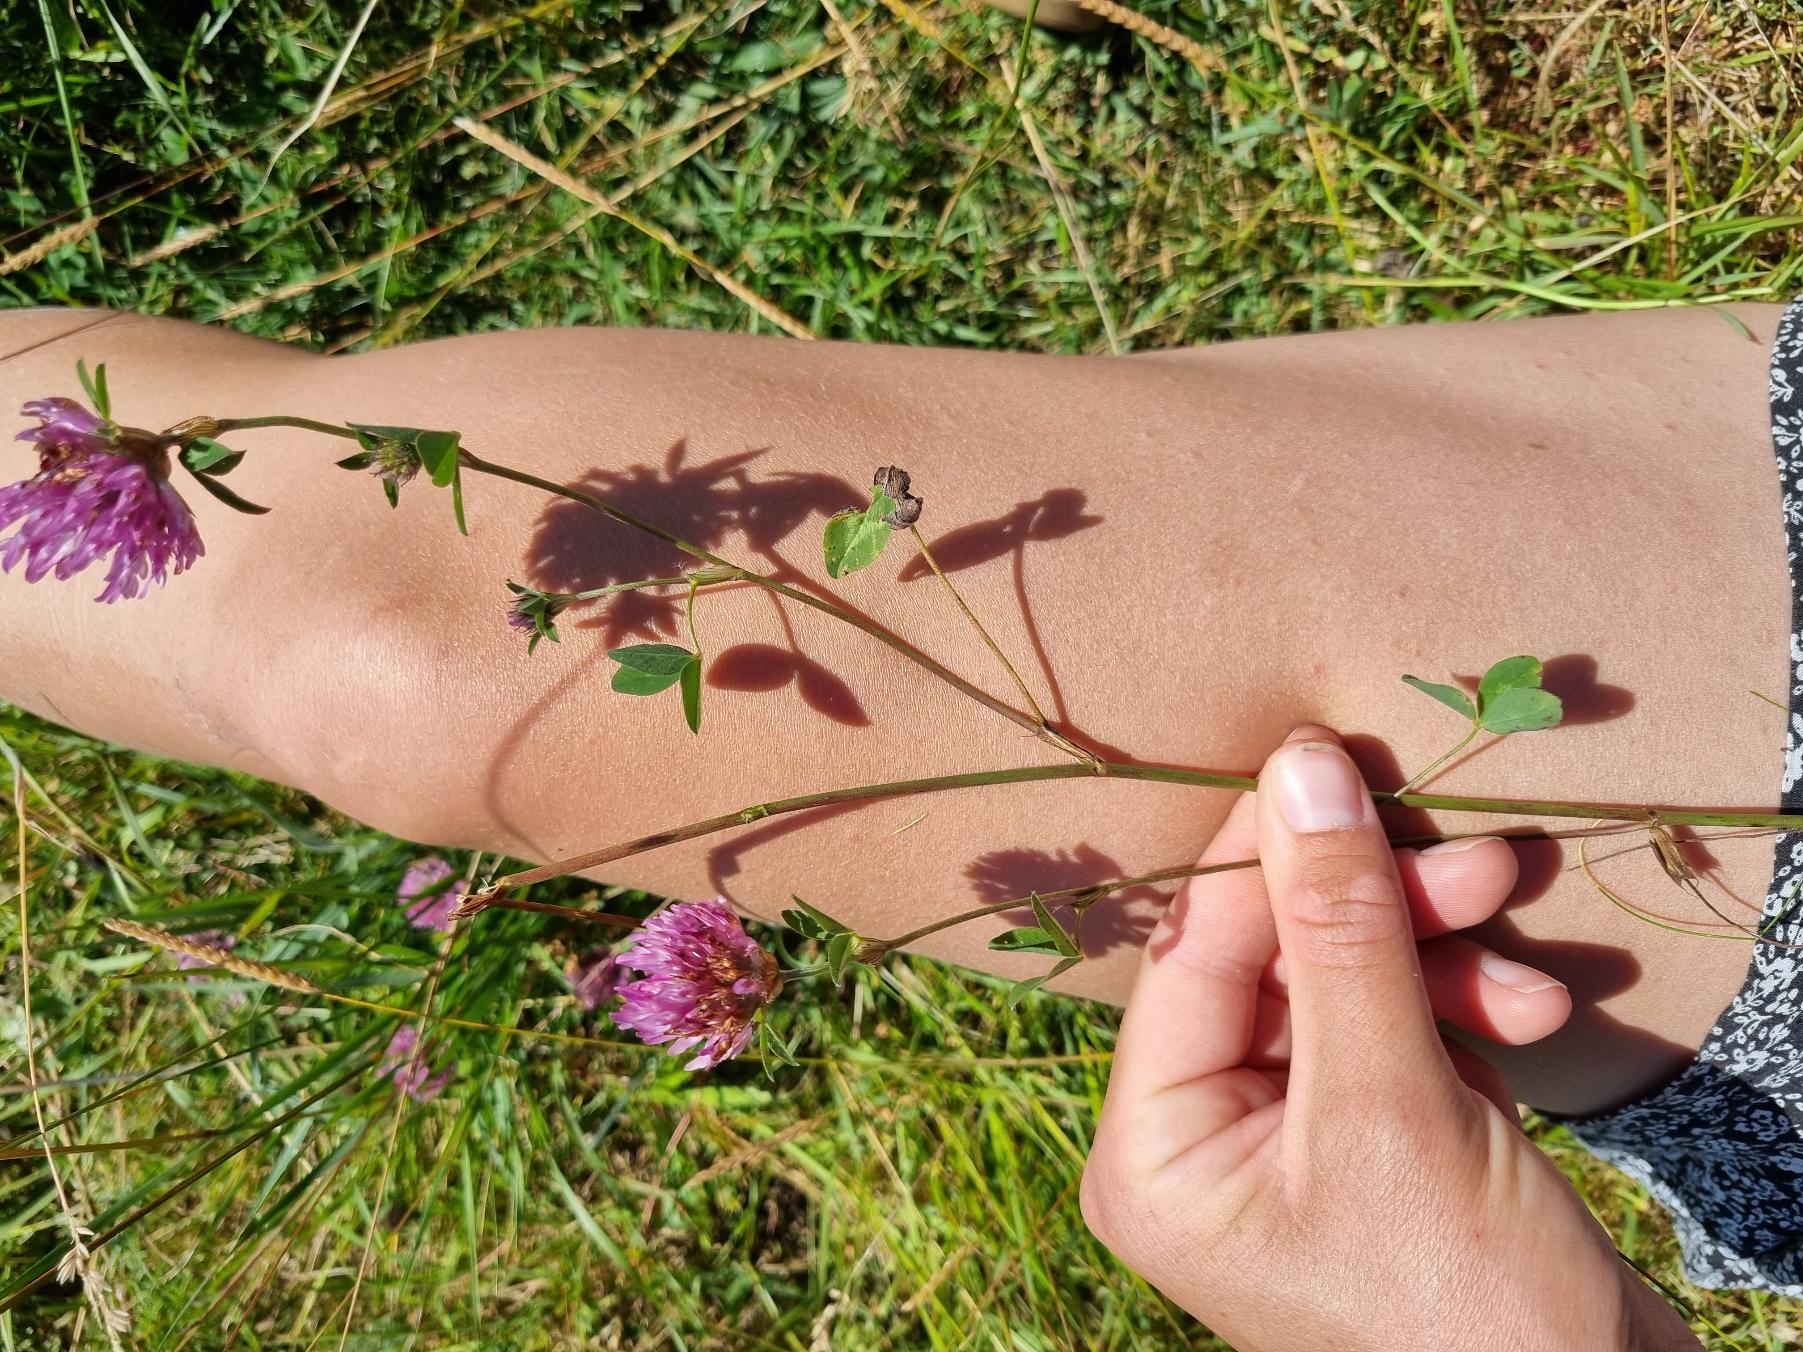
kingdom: Plantae
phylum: Tracheophyta
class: Magnoliopsida
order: Fabales
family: Fabaceae
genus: Trifolium
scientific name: Trifolium pratense
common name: Rød-kløver
